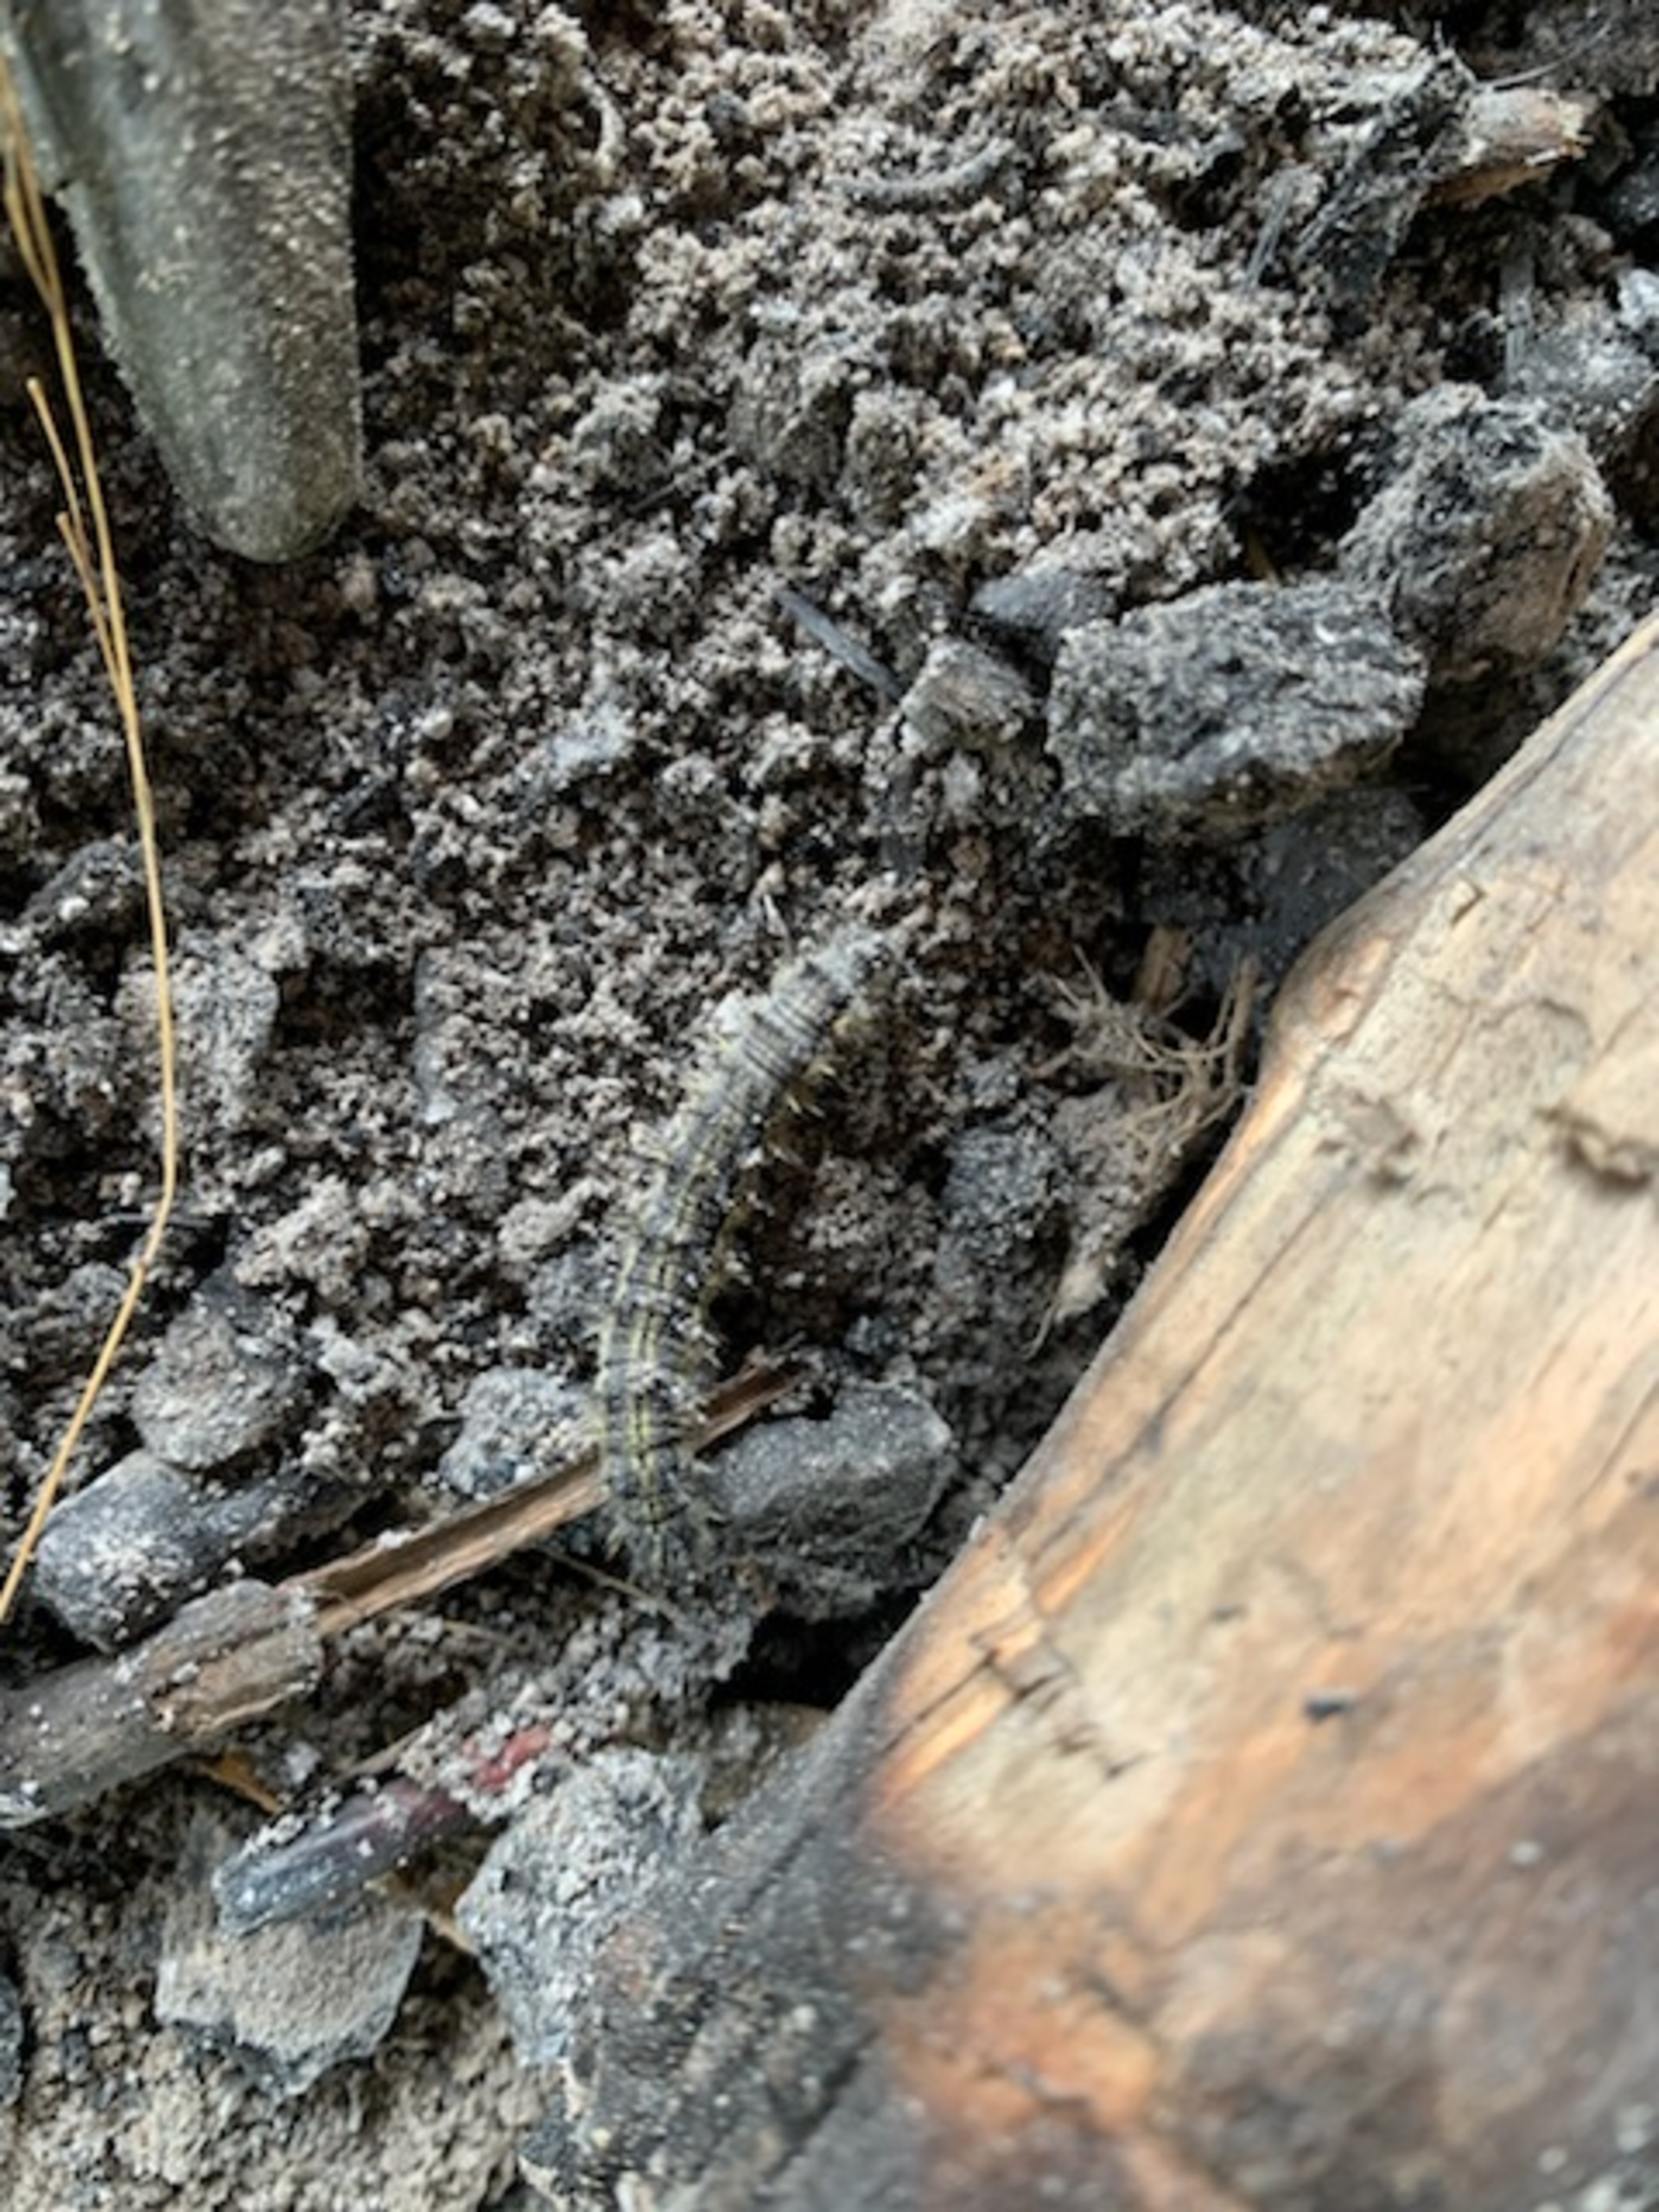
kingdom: Animalia
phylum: Arthropoda
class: Insecta
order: Lepidoptera
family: Nymphalidae
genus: Aglais
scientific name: Aglais urticae
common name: Nældens takvinge
